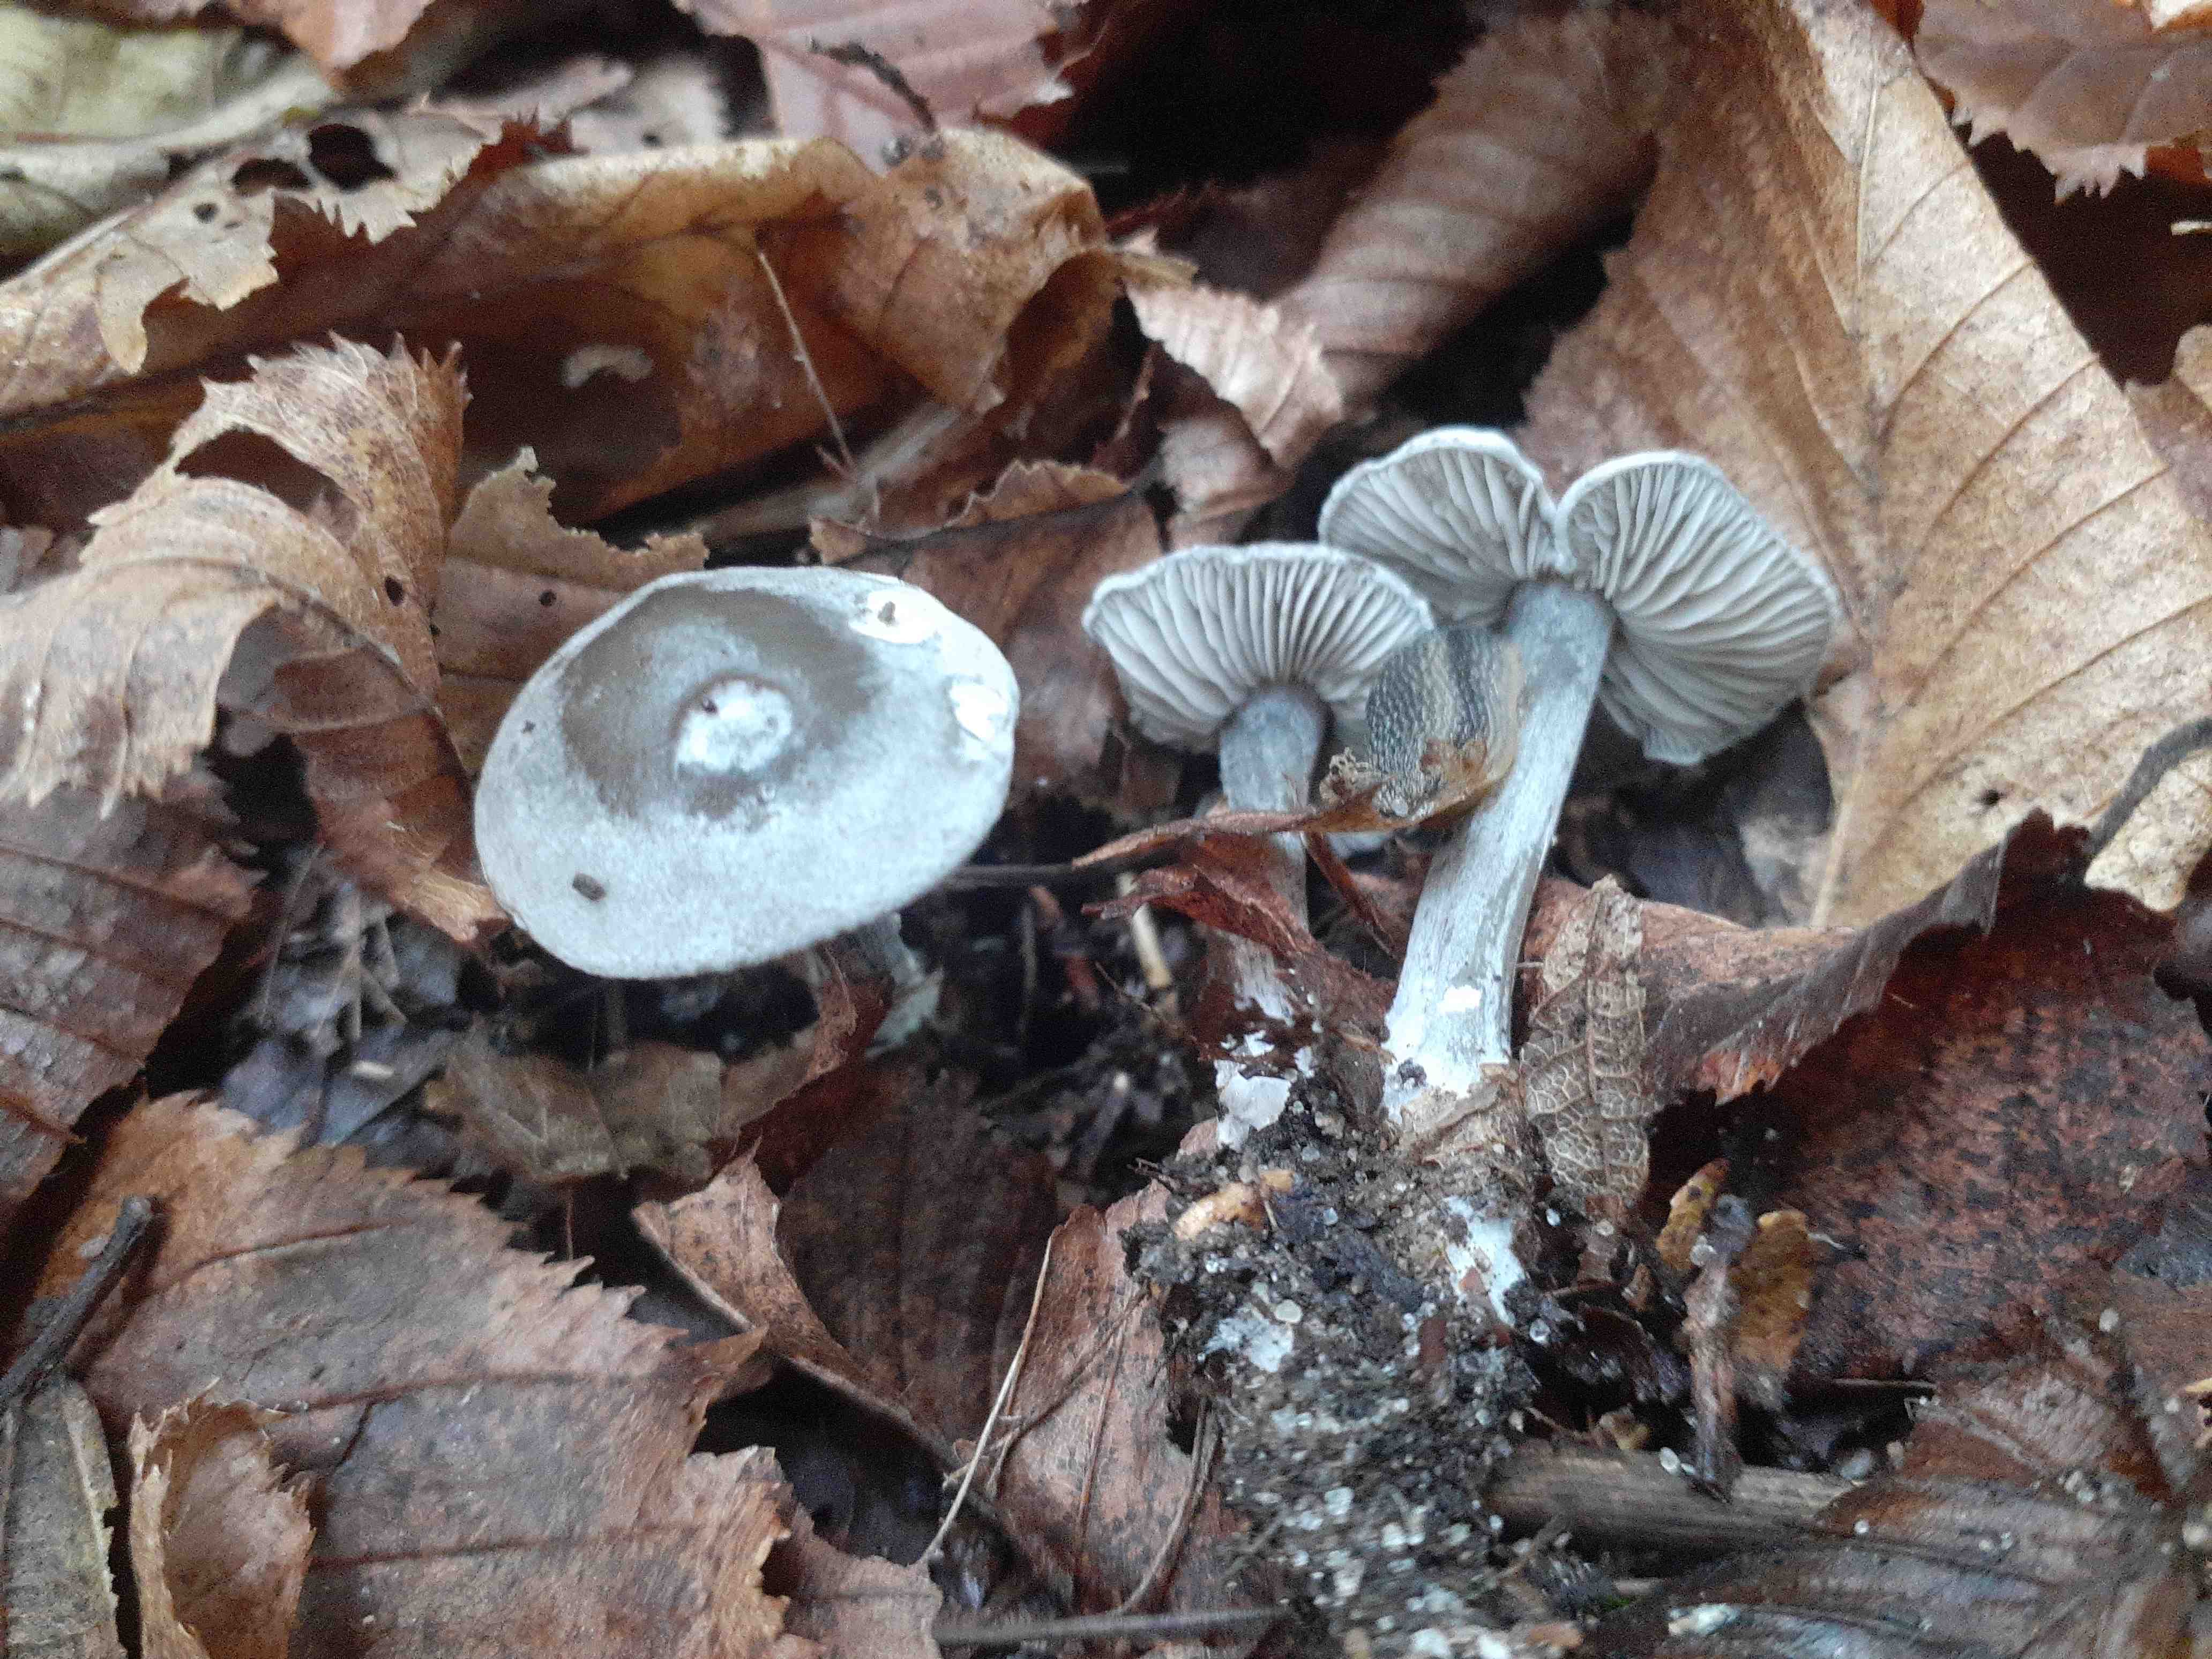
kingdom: Fungi
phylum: Basidiomycota
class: Agaricomycetes
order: Agaricales
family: Lyophyllaceae
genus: Tephrocybe
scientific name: Tephrocybe rancida
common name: mel-gråblad
